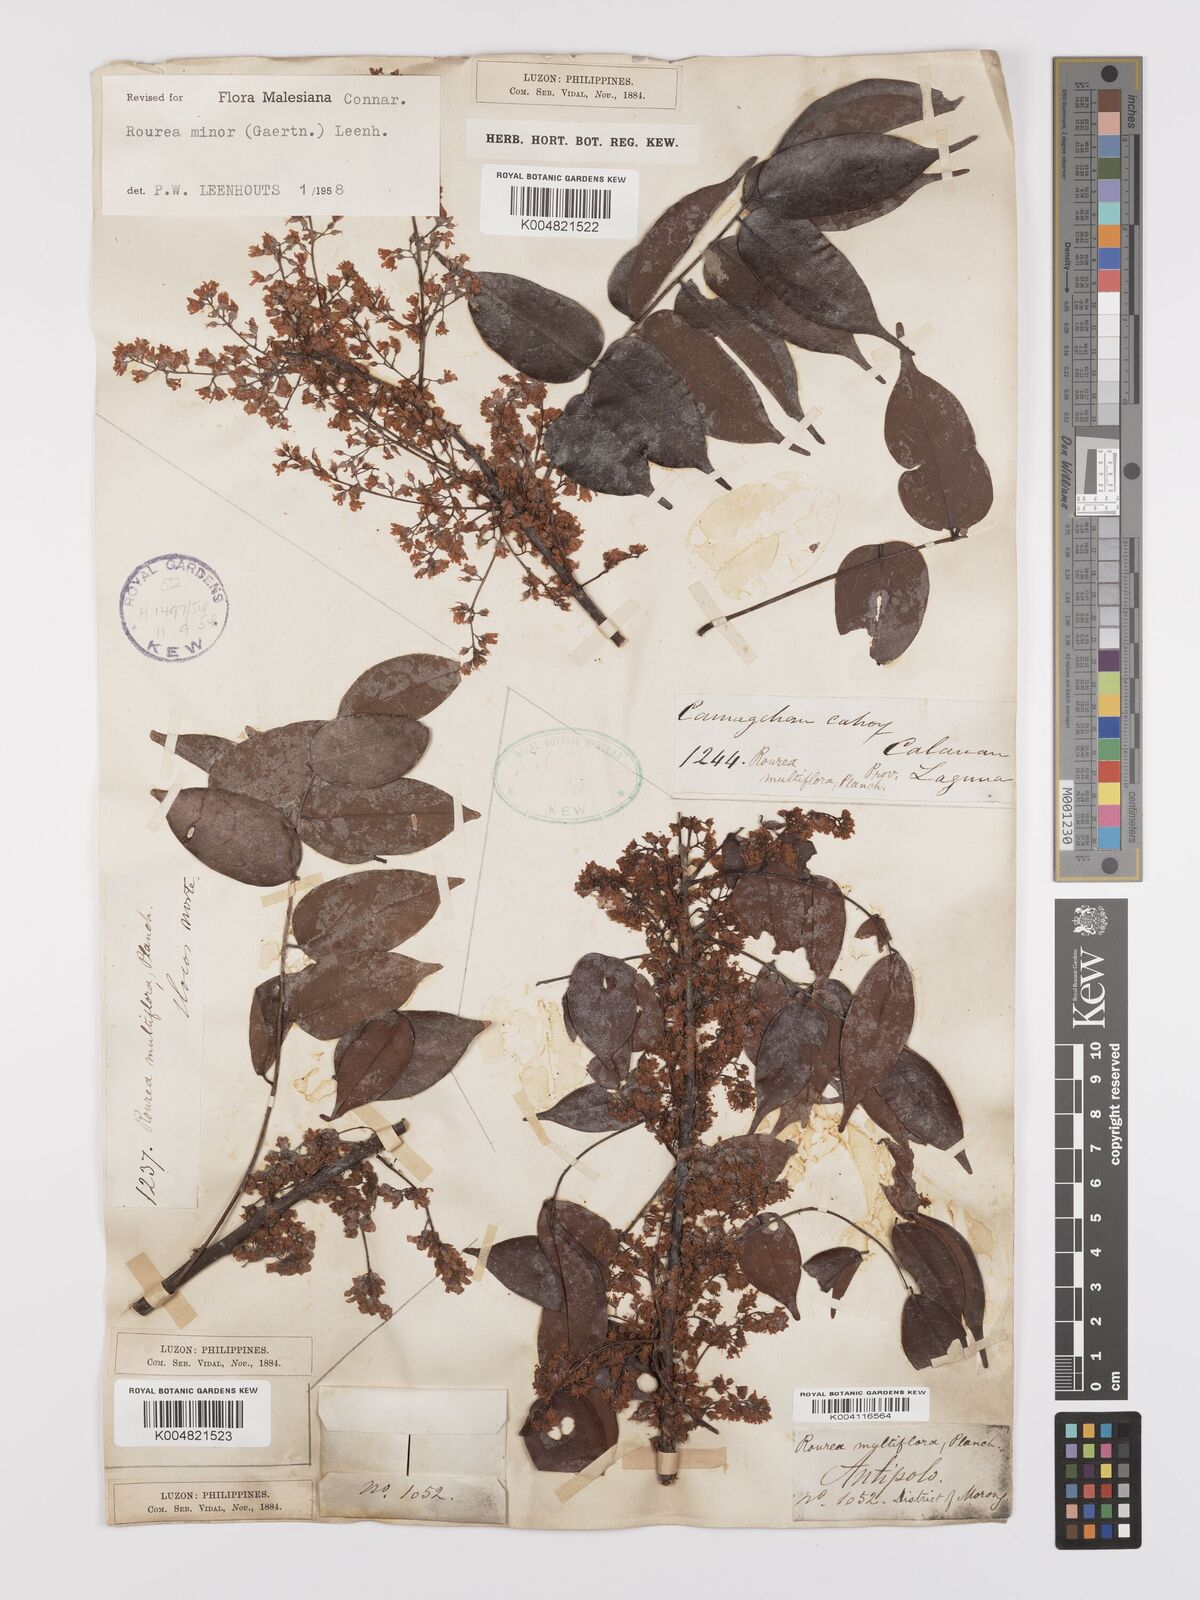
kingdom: Plantae
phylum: Tracheophyta
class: Magnoliopsida
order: Oxalidales
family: Connaraceae
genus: Rourea
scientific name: Rourea minor
